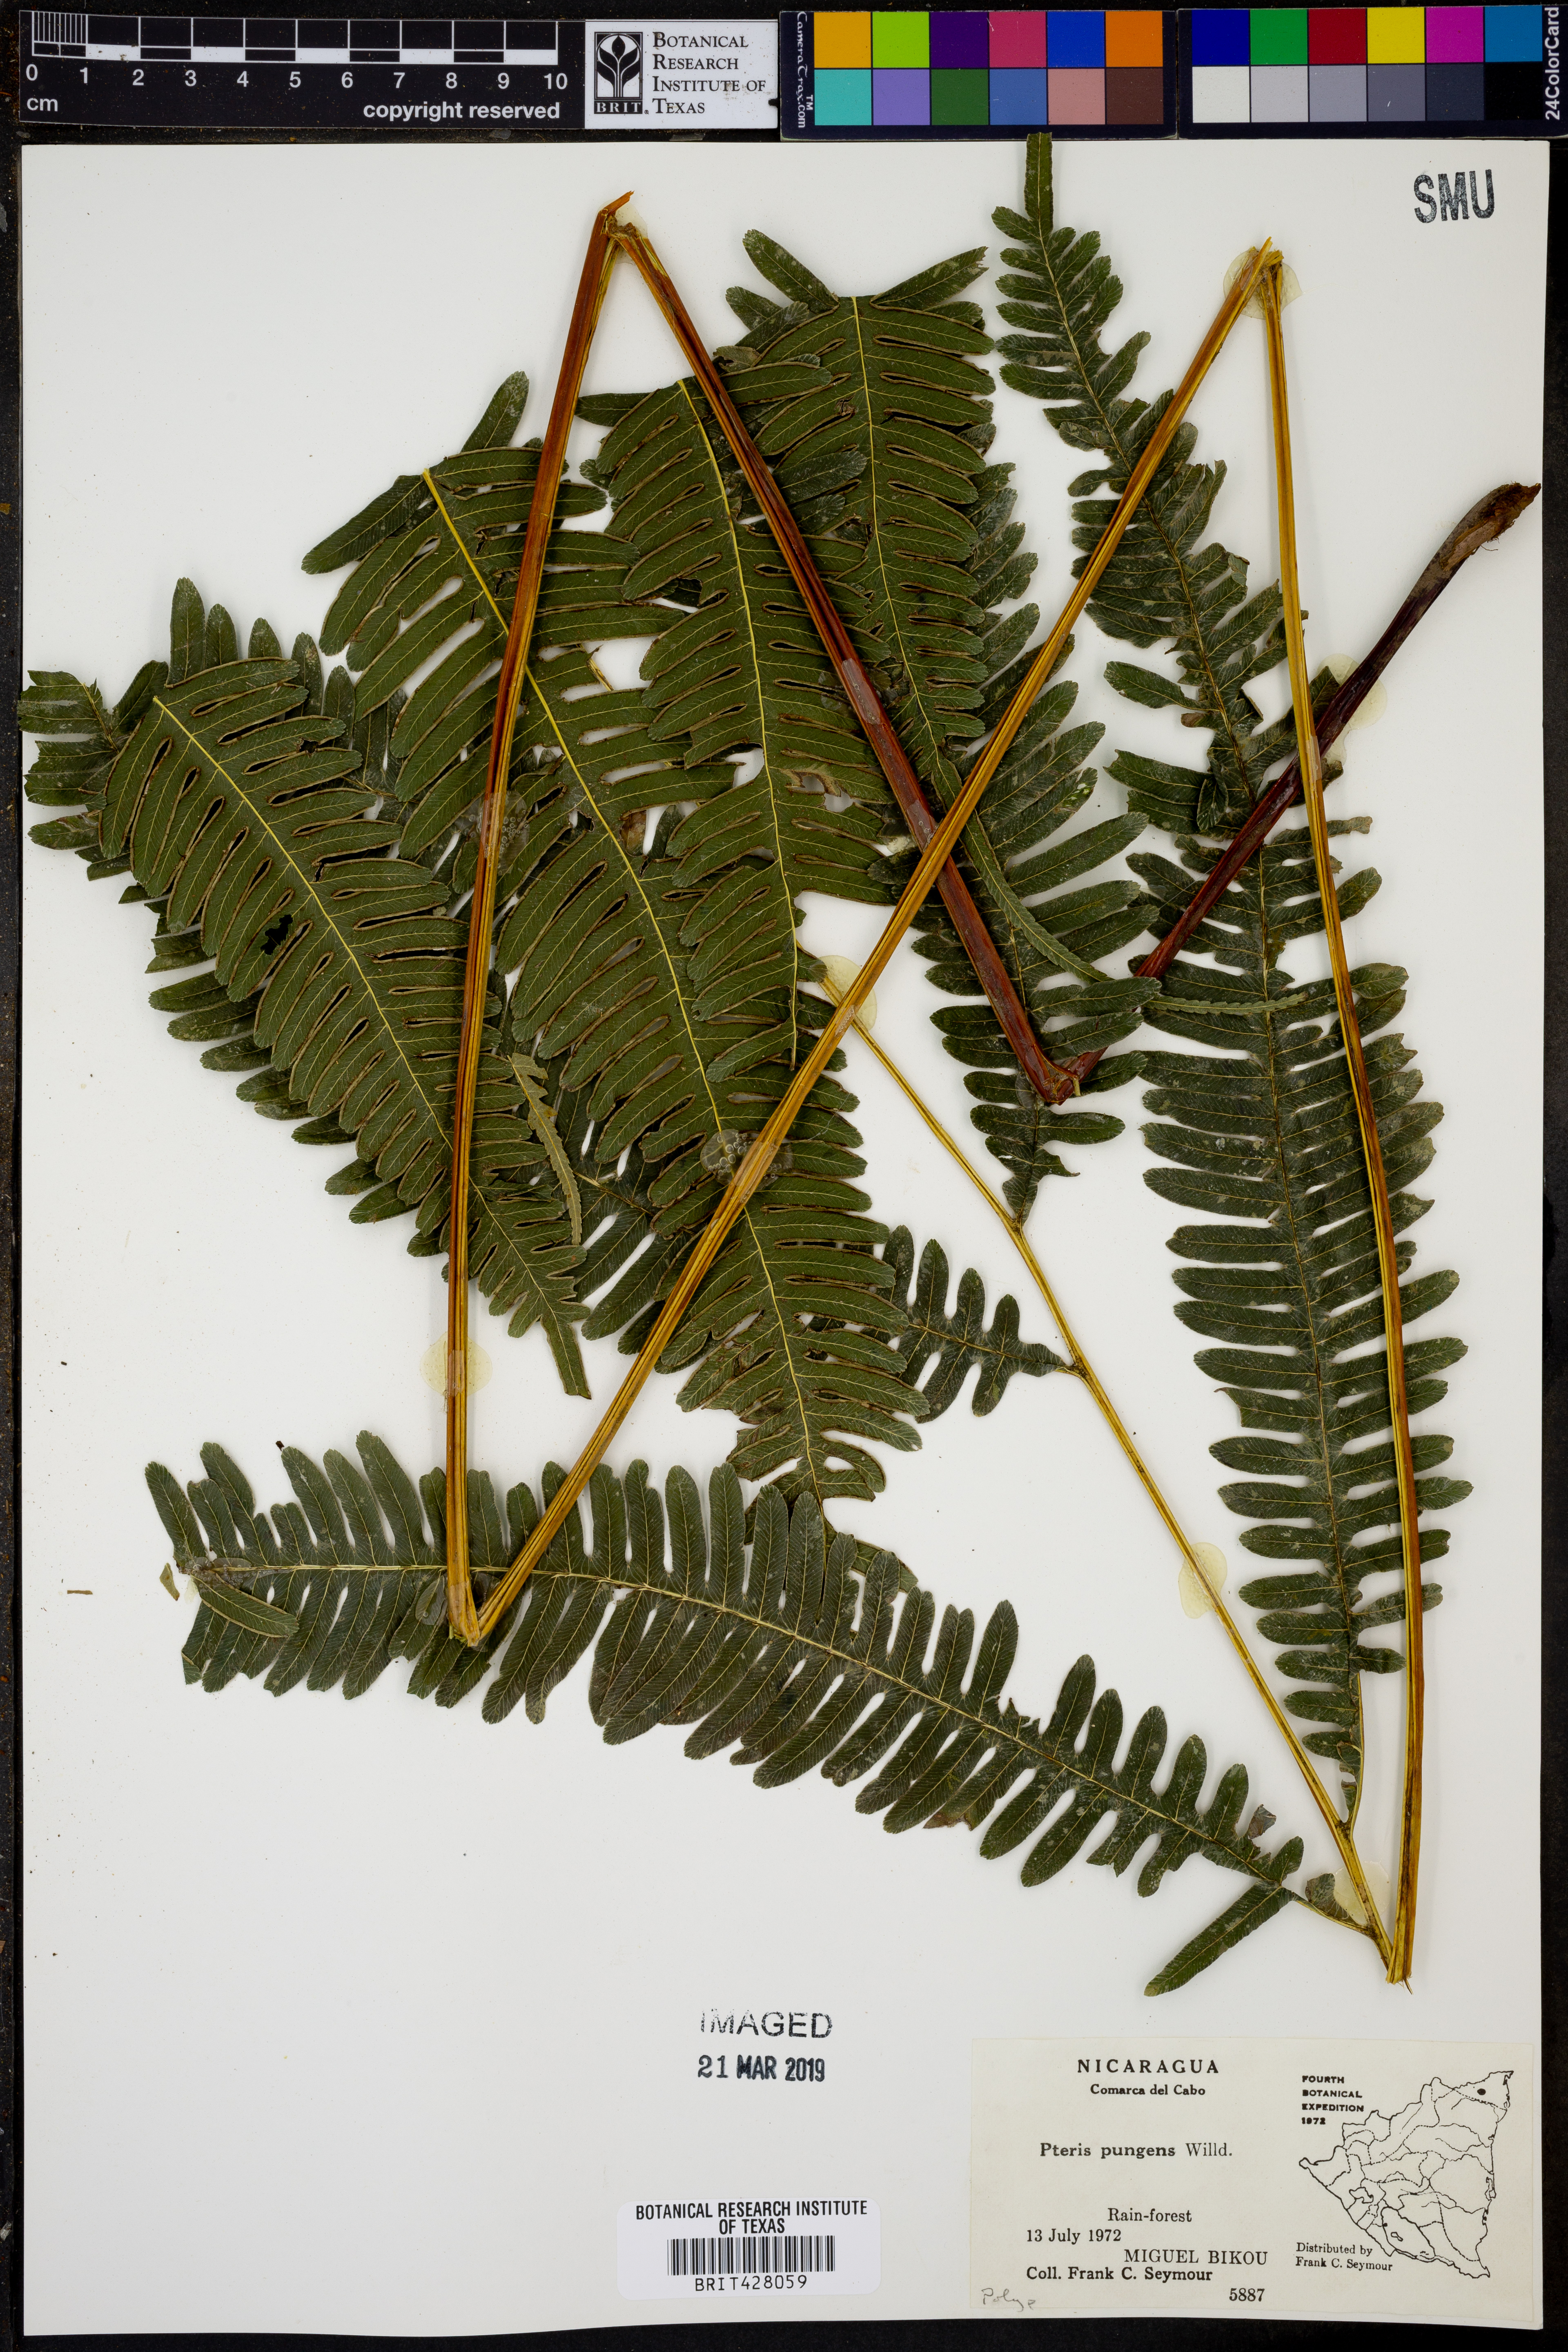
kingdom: Plantae
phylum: Tracheophyta
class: Polypodiopsida
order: Polypodiales
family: Pteridaceae
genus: Pteris
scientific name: Pteris pungens
